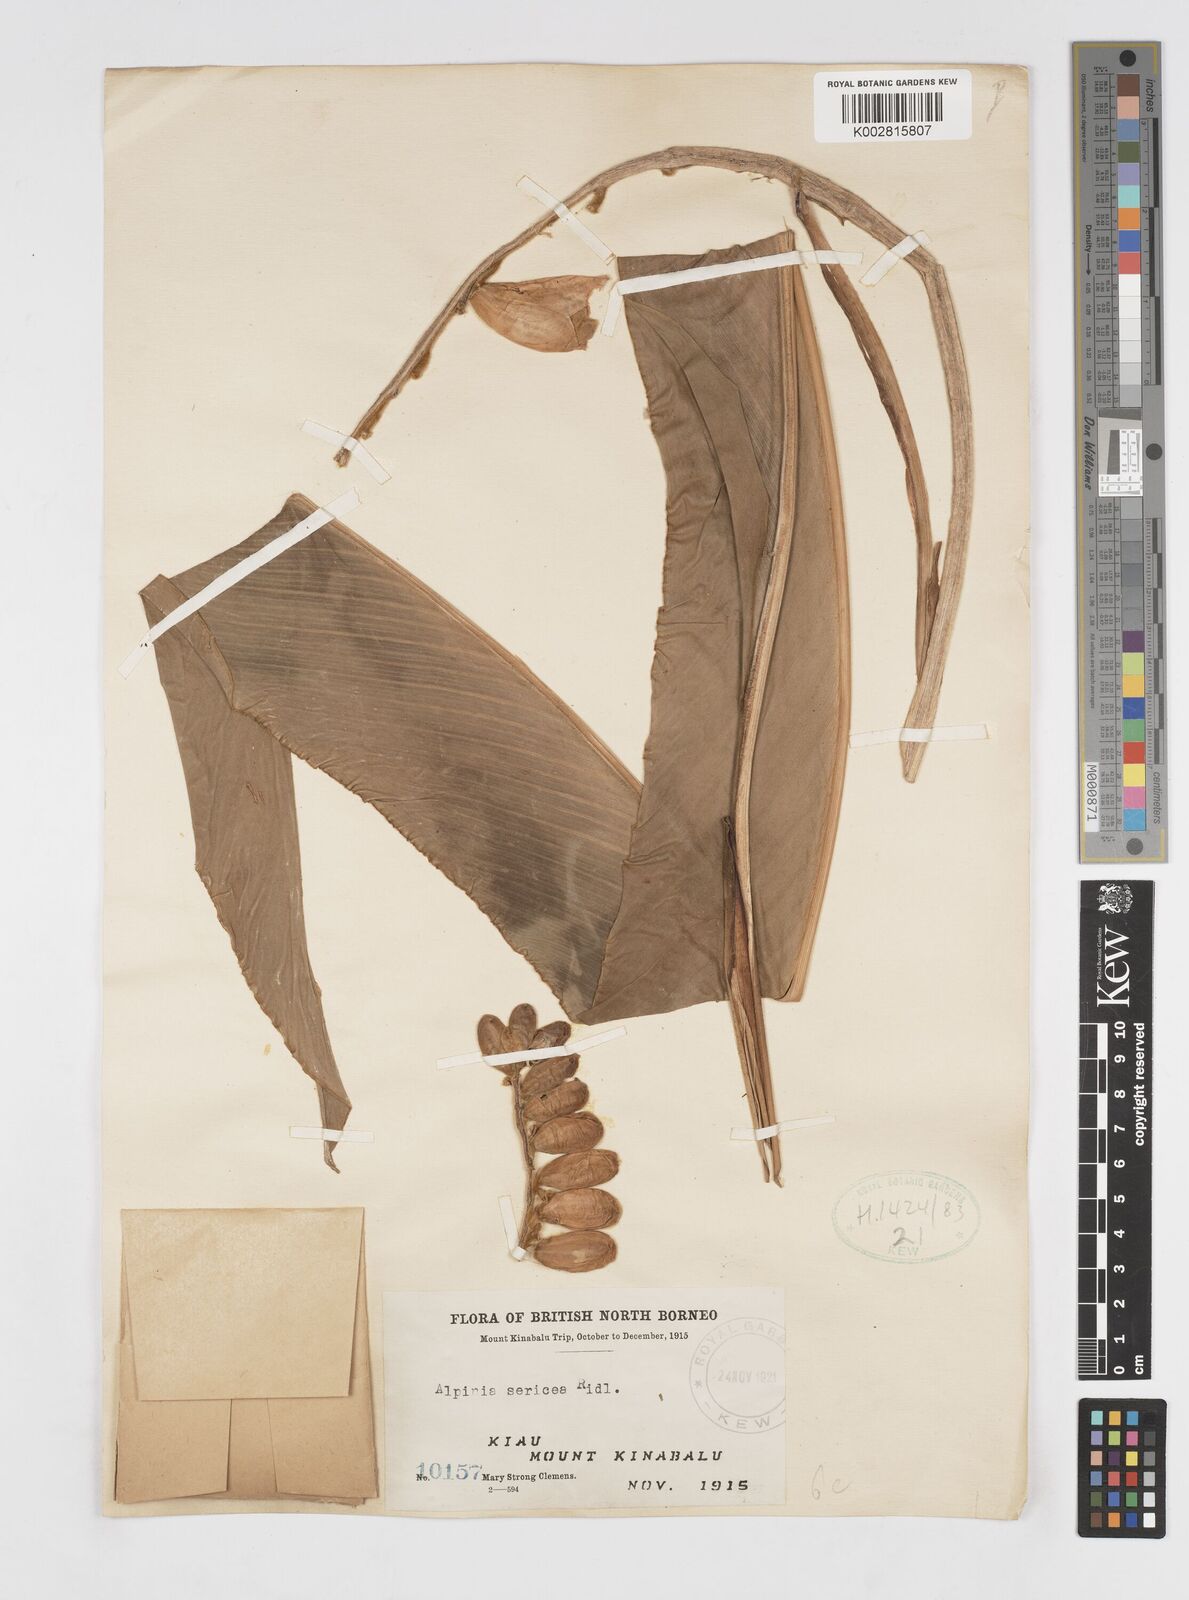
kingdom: Plantae
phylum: Tracheophyta
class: Liliopsida
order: Zingiberales
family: Zingiberaceae
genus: Alpinia
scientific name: Alpinia latilabris
